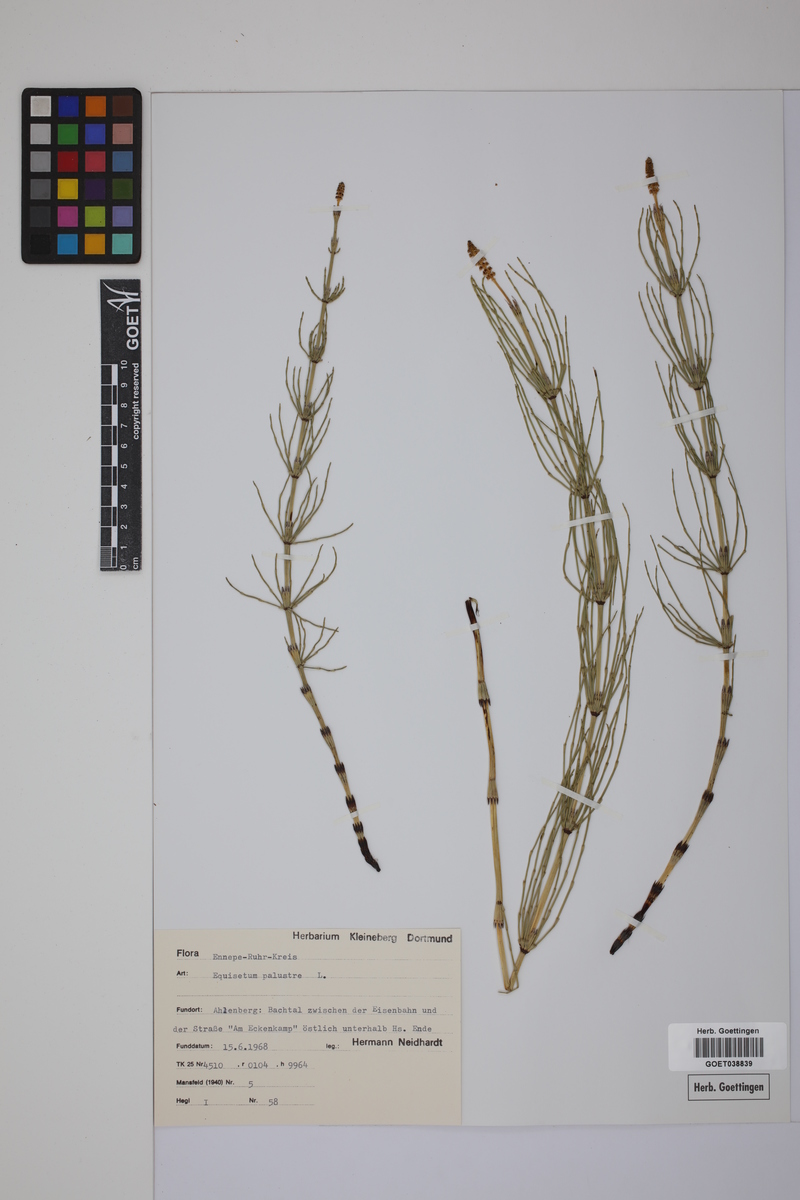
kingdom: Plantae
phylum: Tracheophyta
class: Polypodiopsida
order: Equisetales
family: Equisetaceae
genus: Equisetum
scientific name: Equisetum palustre
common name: Marsh horsetail
